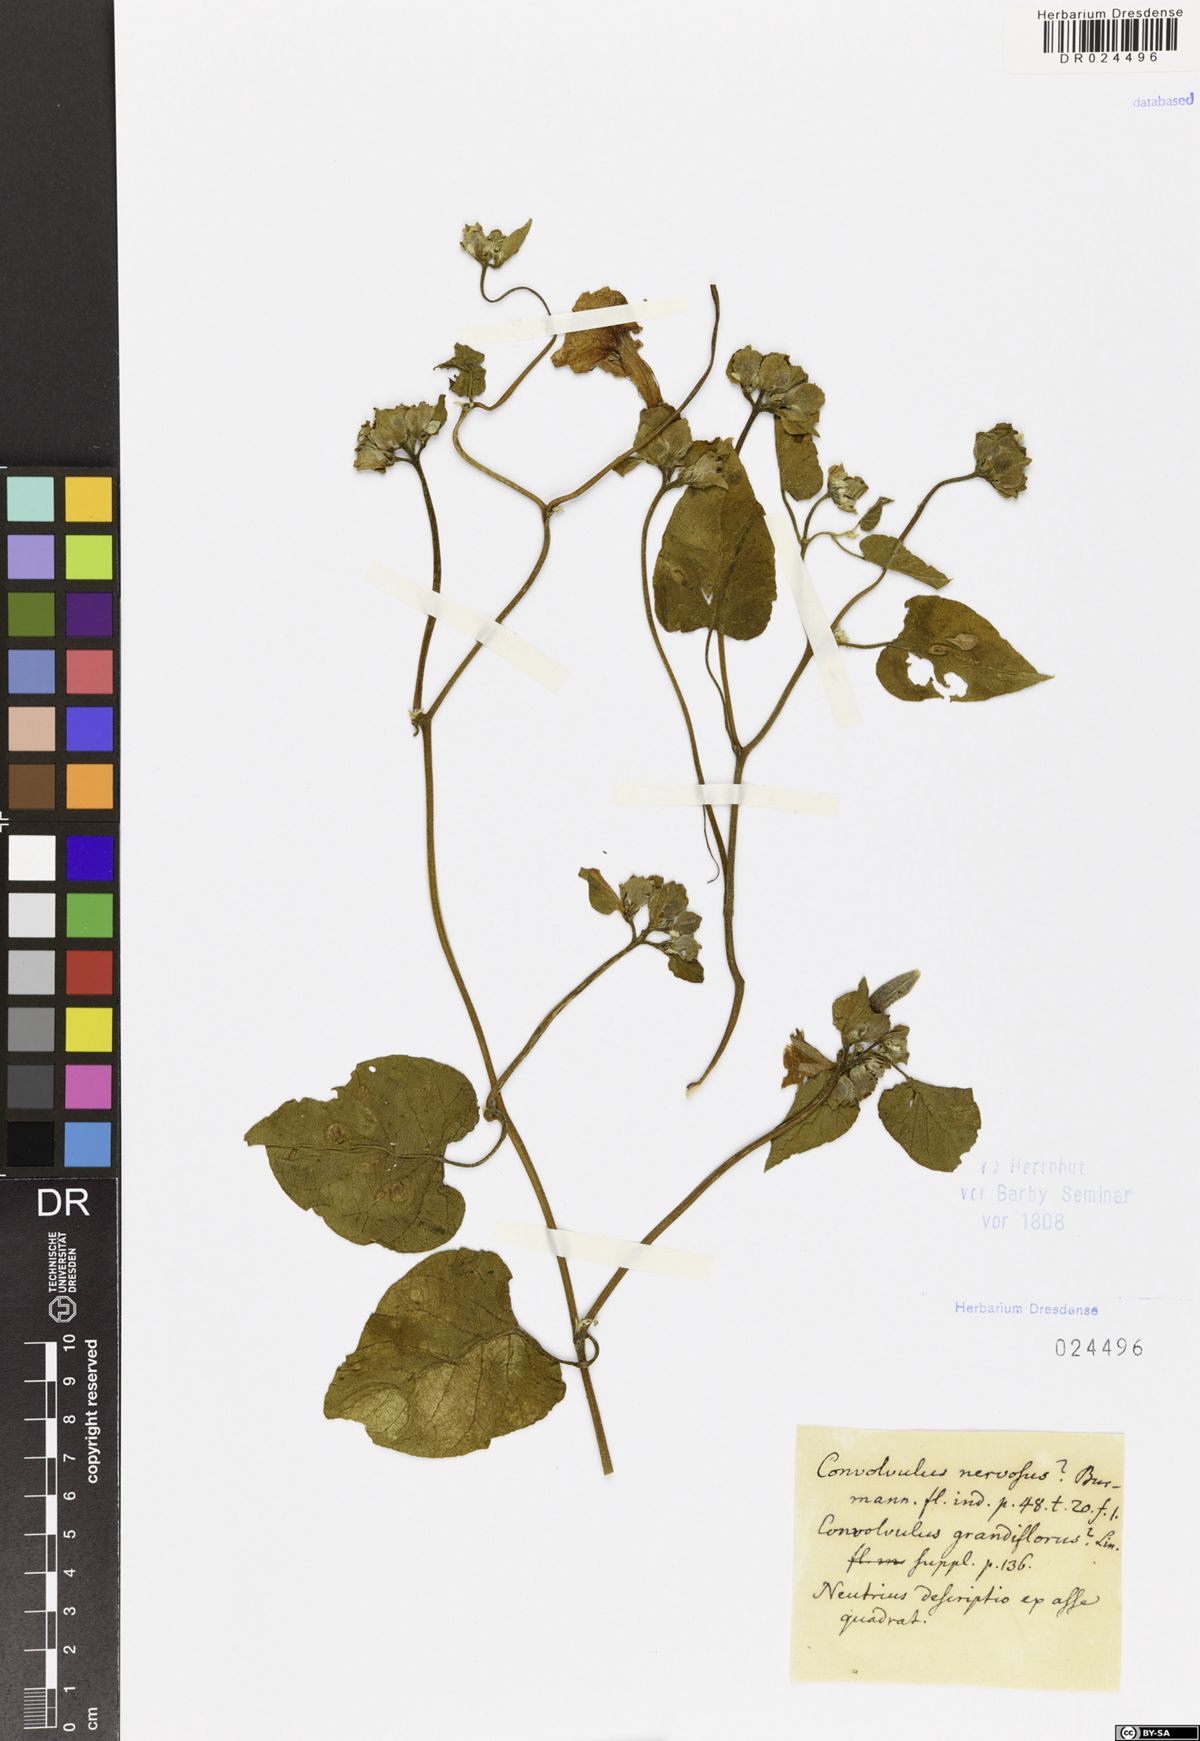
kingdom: Plantae
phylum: Tracheophyta
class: Magnoliopsida
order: Solanales
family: Convolvulaceae
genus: Argyreia
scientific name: Argyreia nervosa
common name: Elephant creeper
